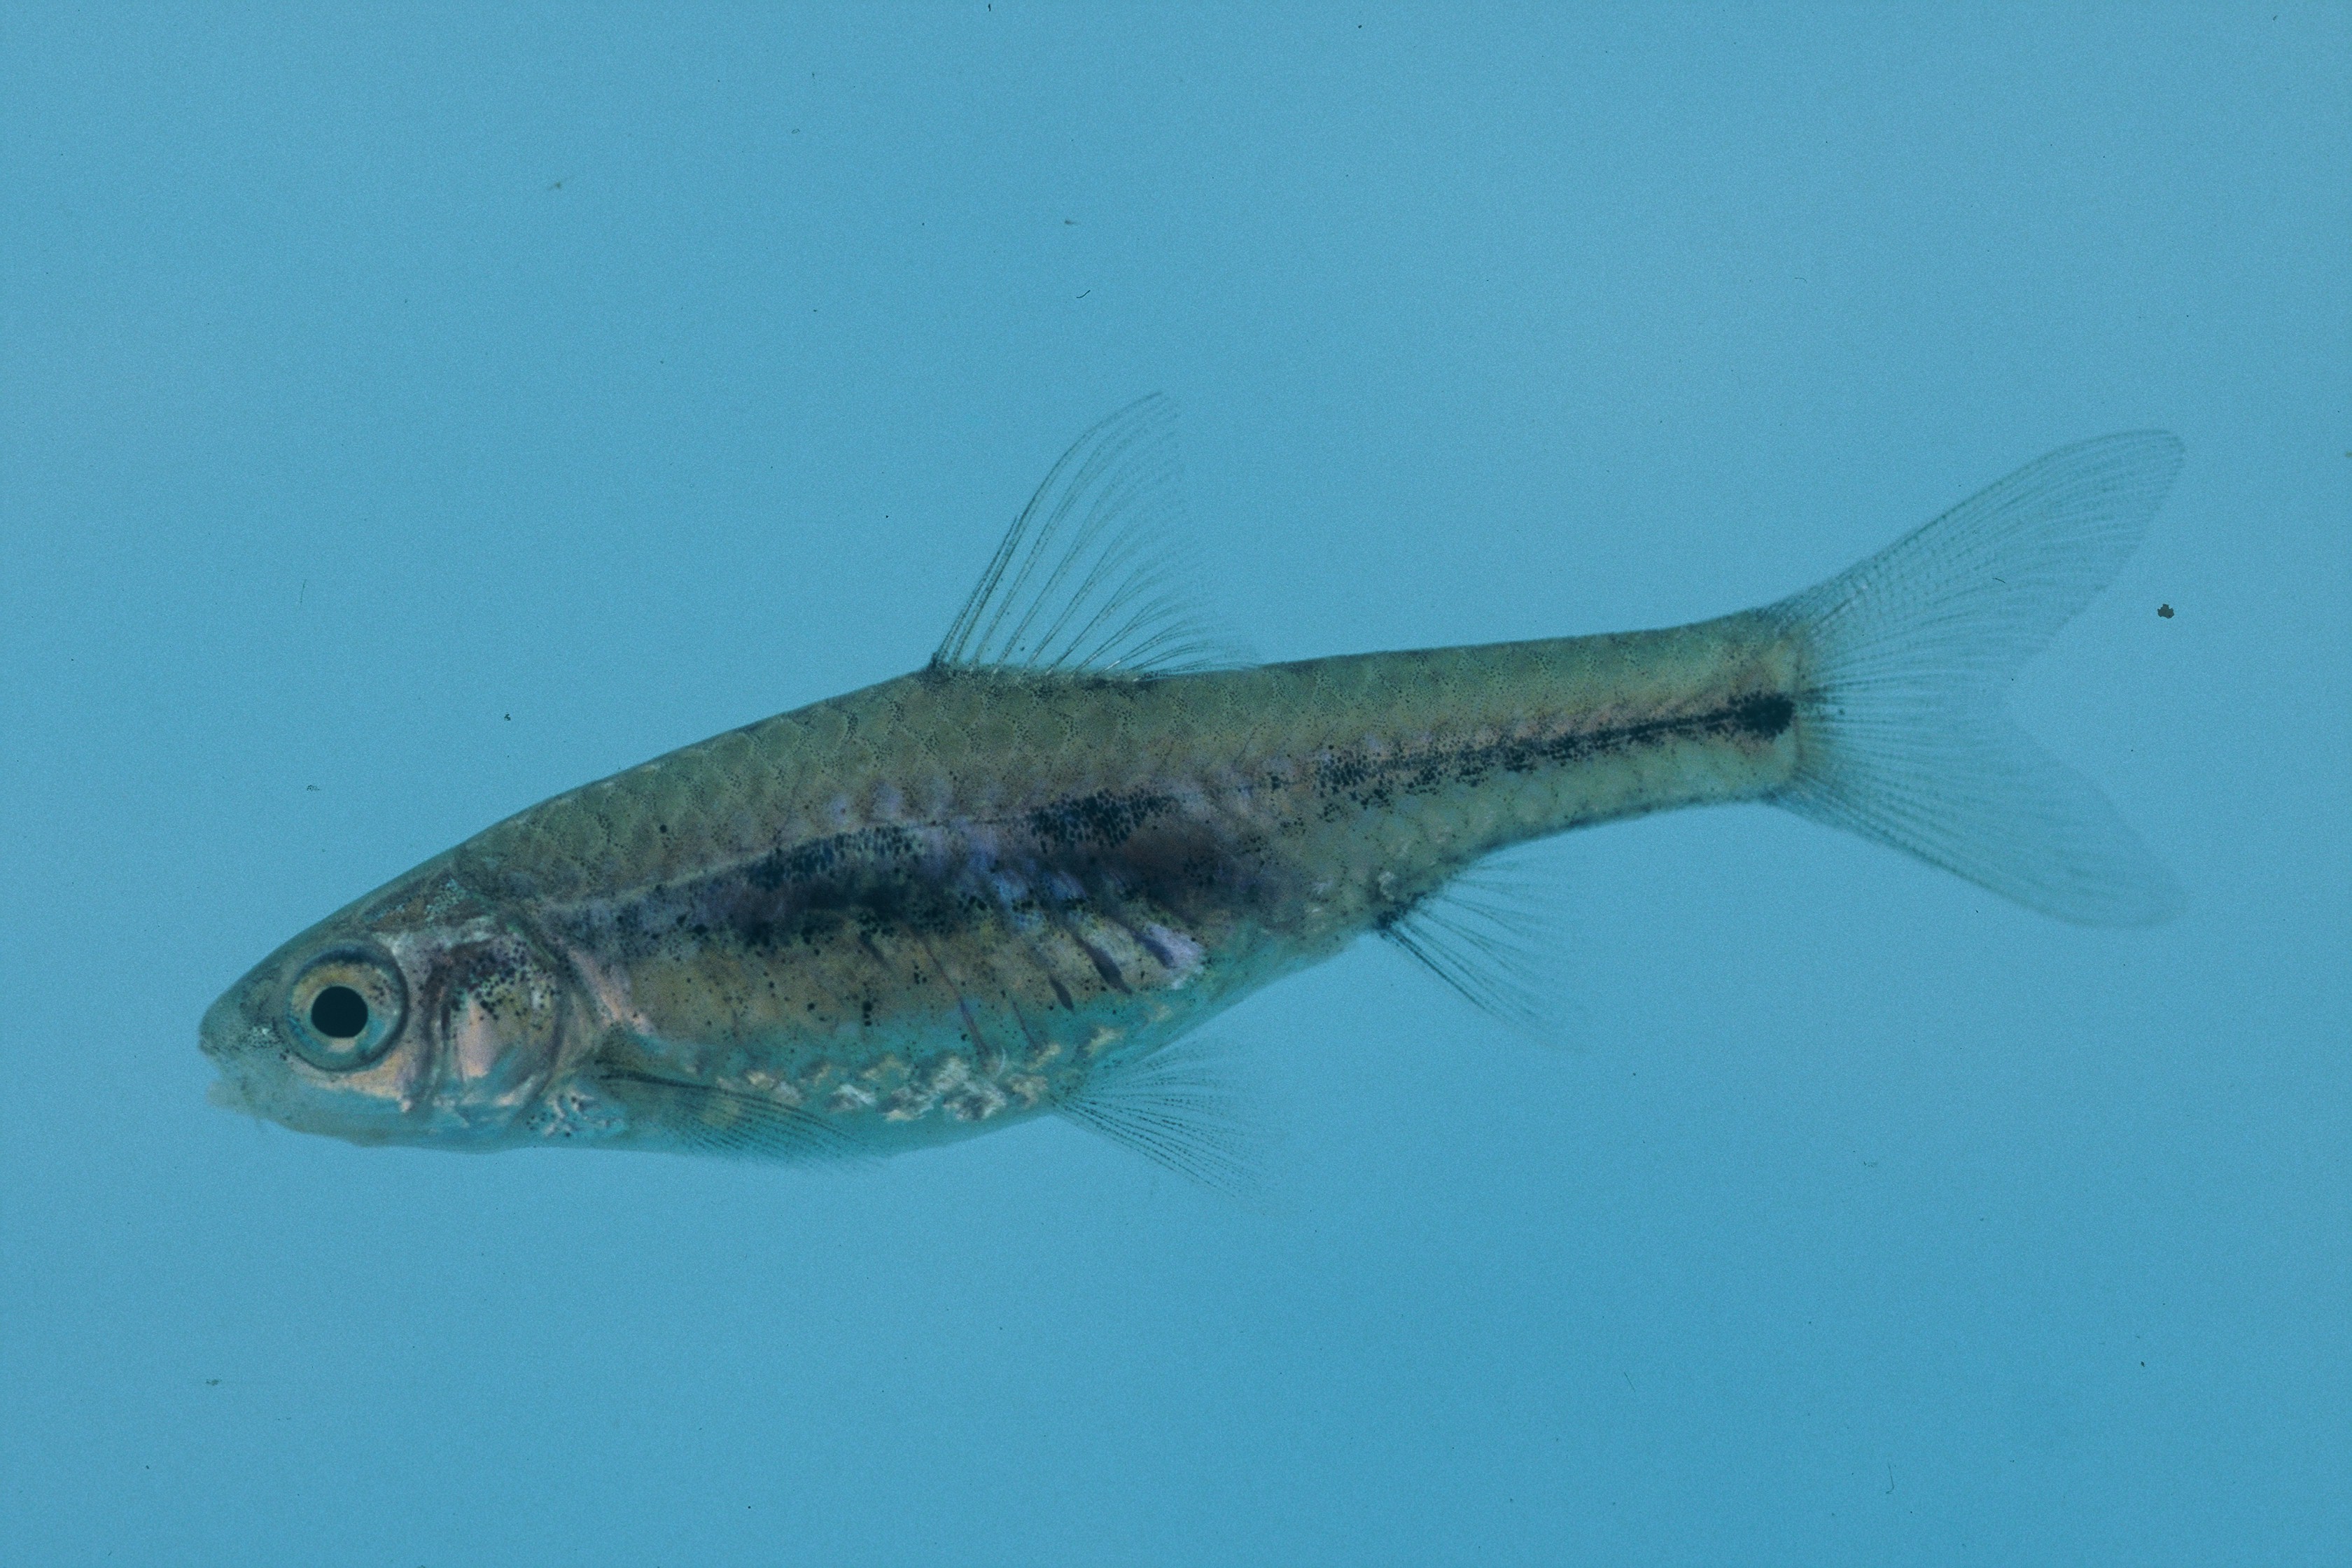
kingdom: Animalia
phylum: Chordata
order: Cypriniformes
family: Cyprinidae
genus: Enteromius
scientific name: Enteromius toppini
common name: East coast barb
